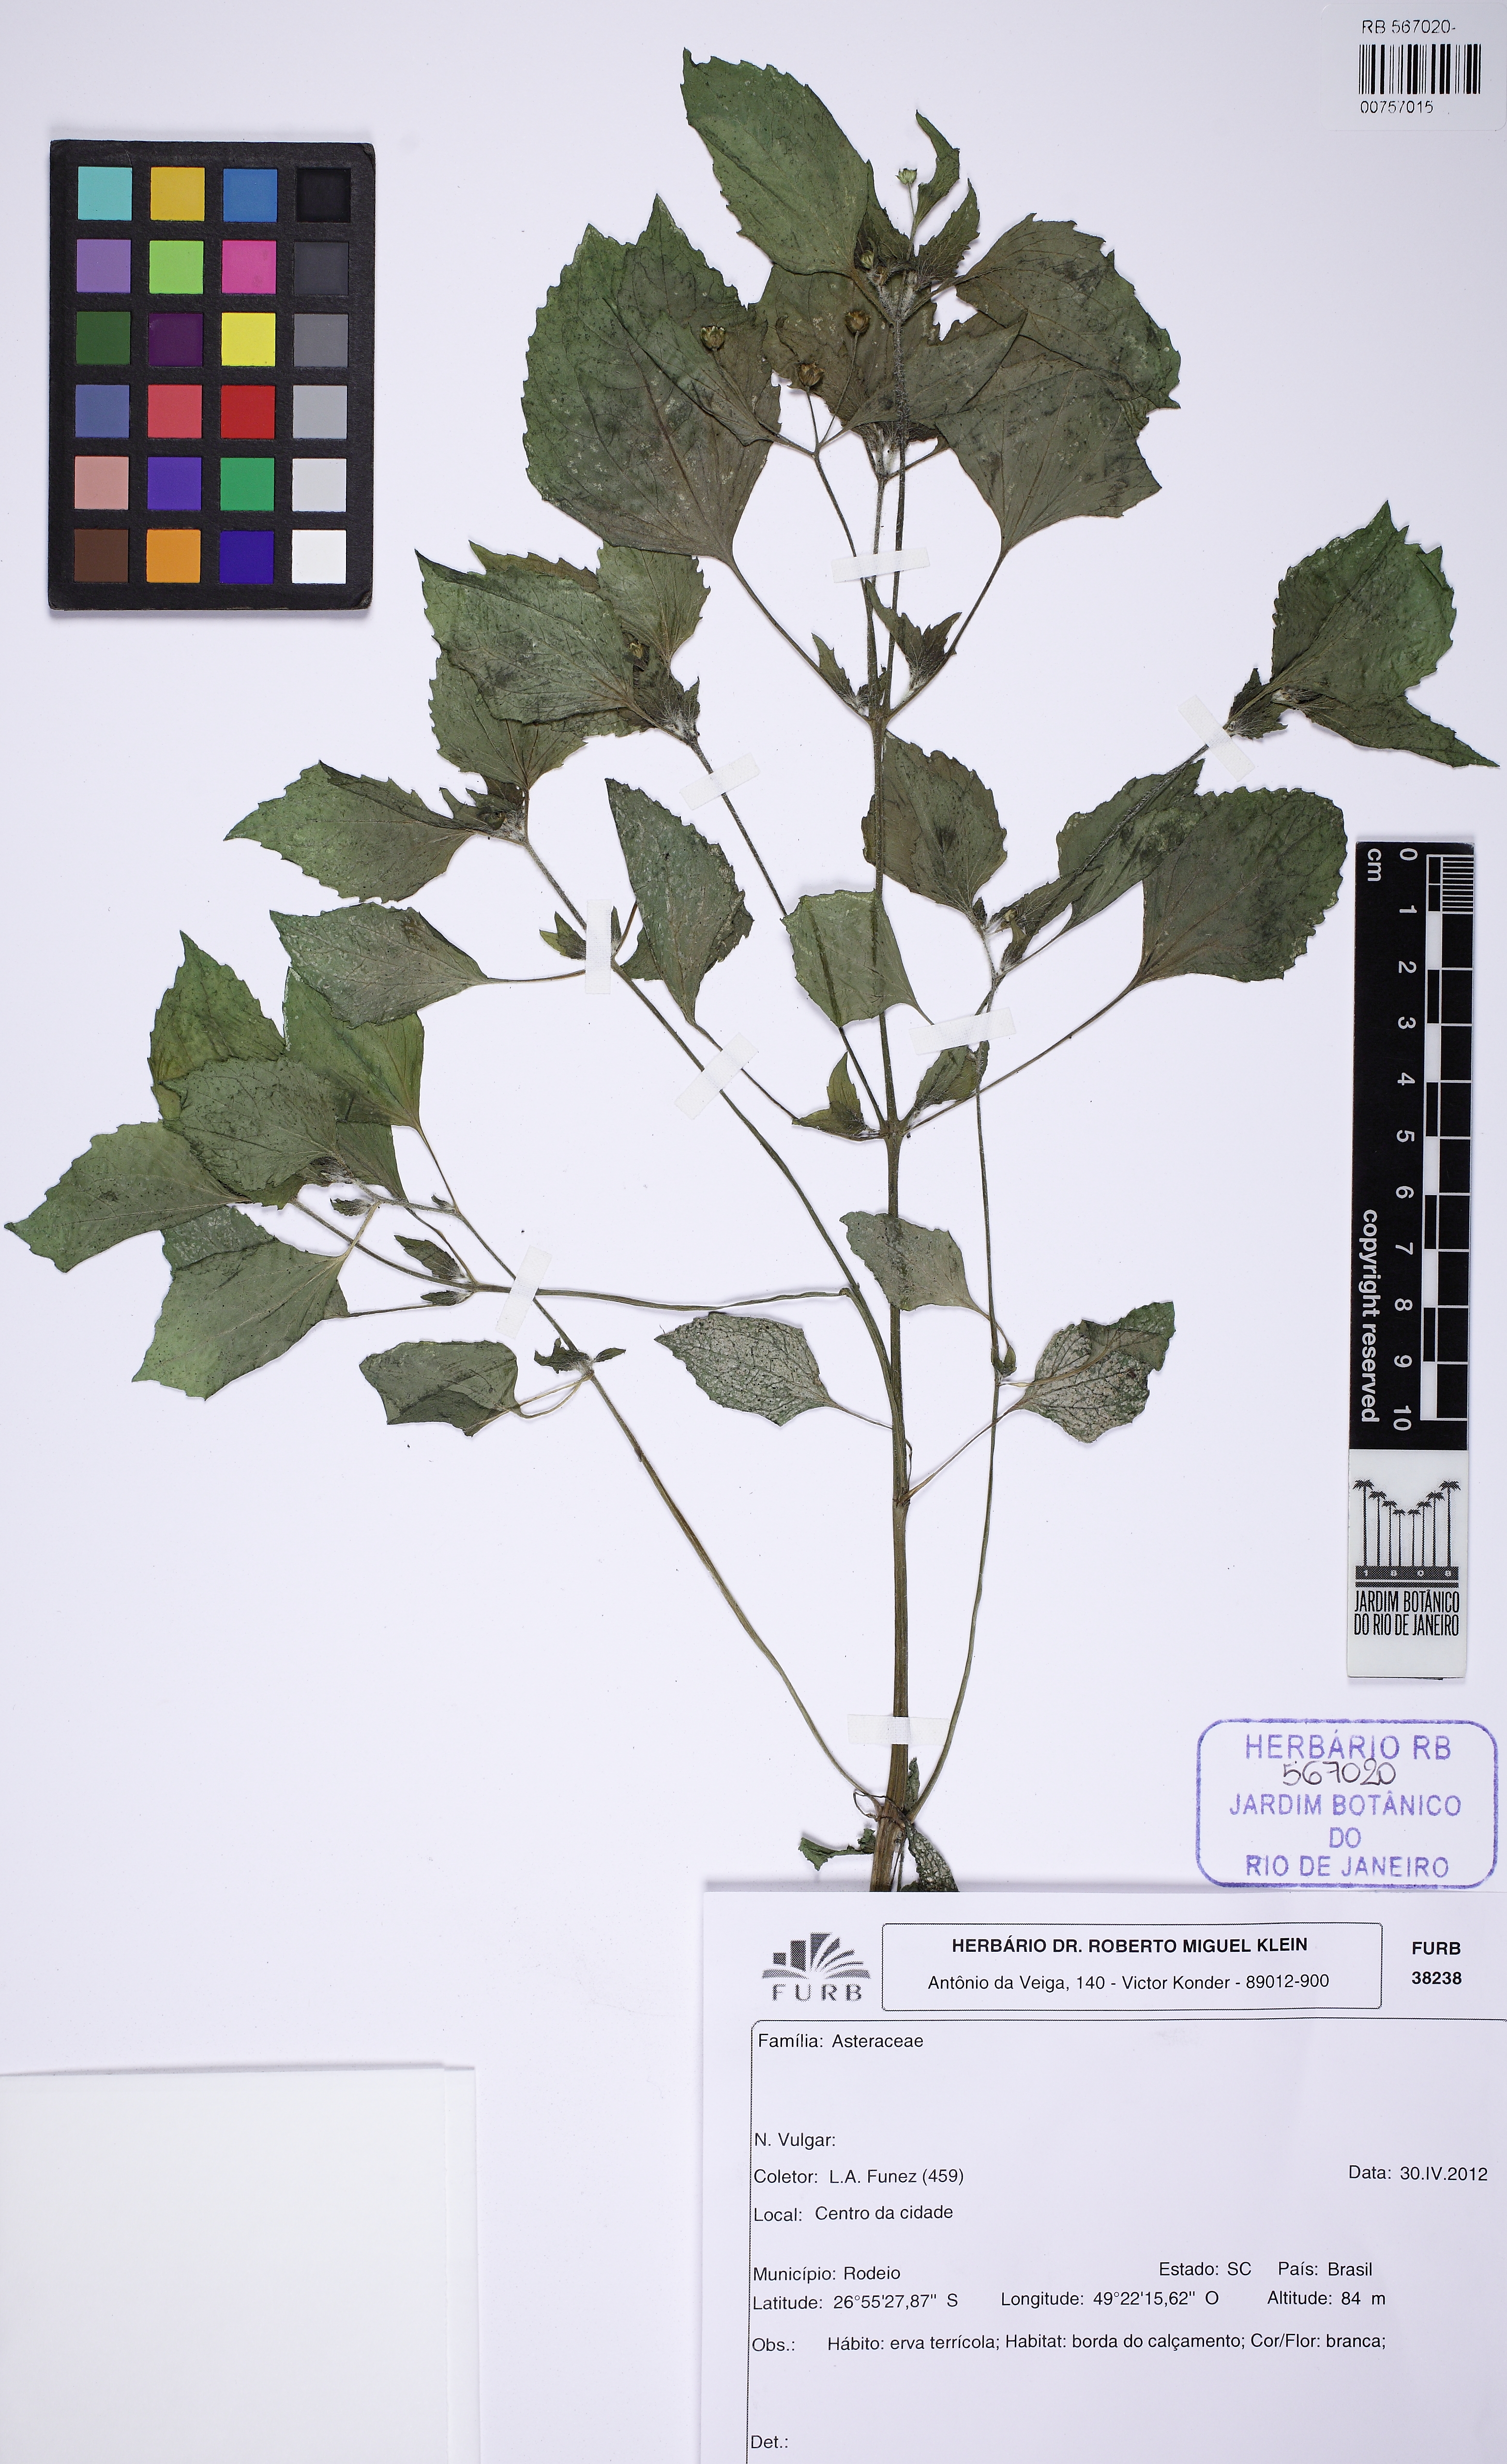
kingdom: Plantae
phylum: Tracheophyta
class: Magnoliopsida
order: Asterales
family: Asteraceae
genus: Galinsoga
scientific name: Galinsoga quadriradiata
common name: Shaggy soldier
